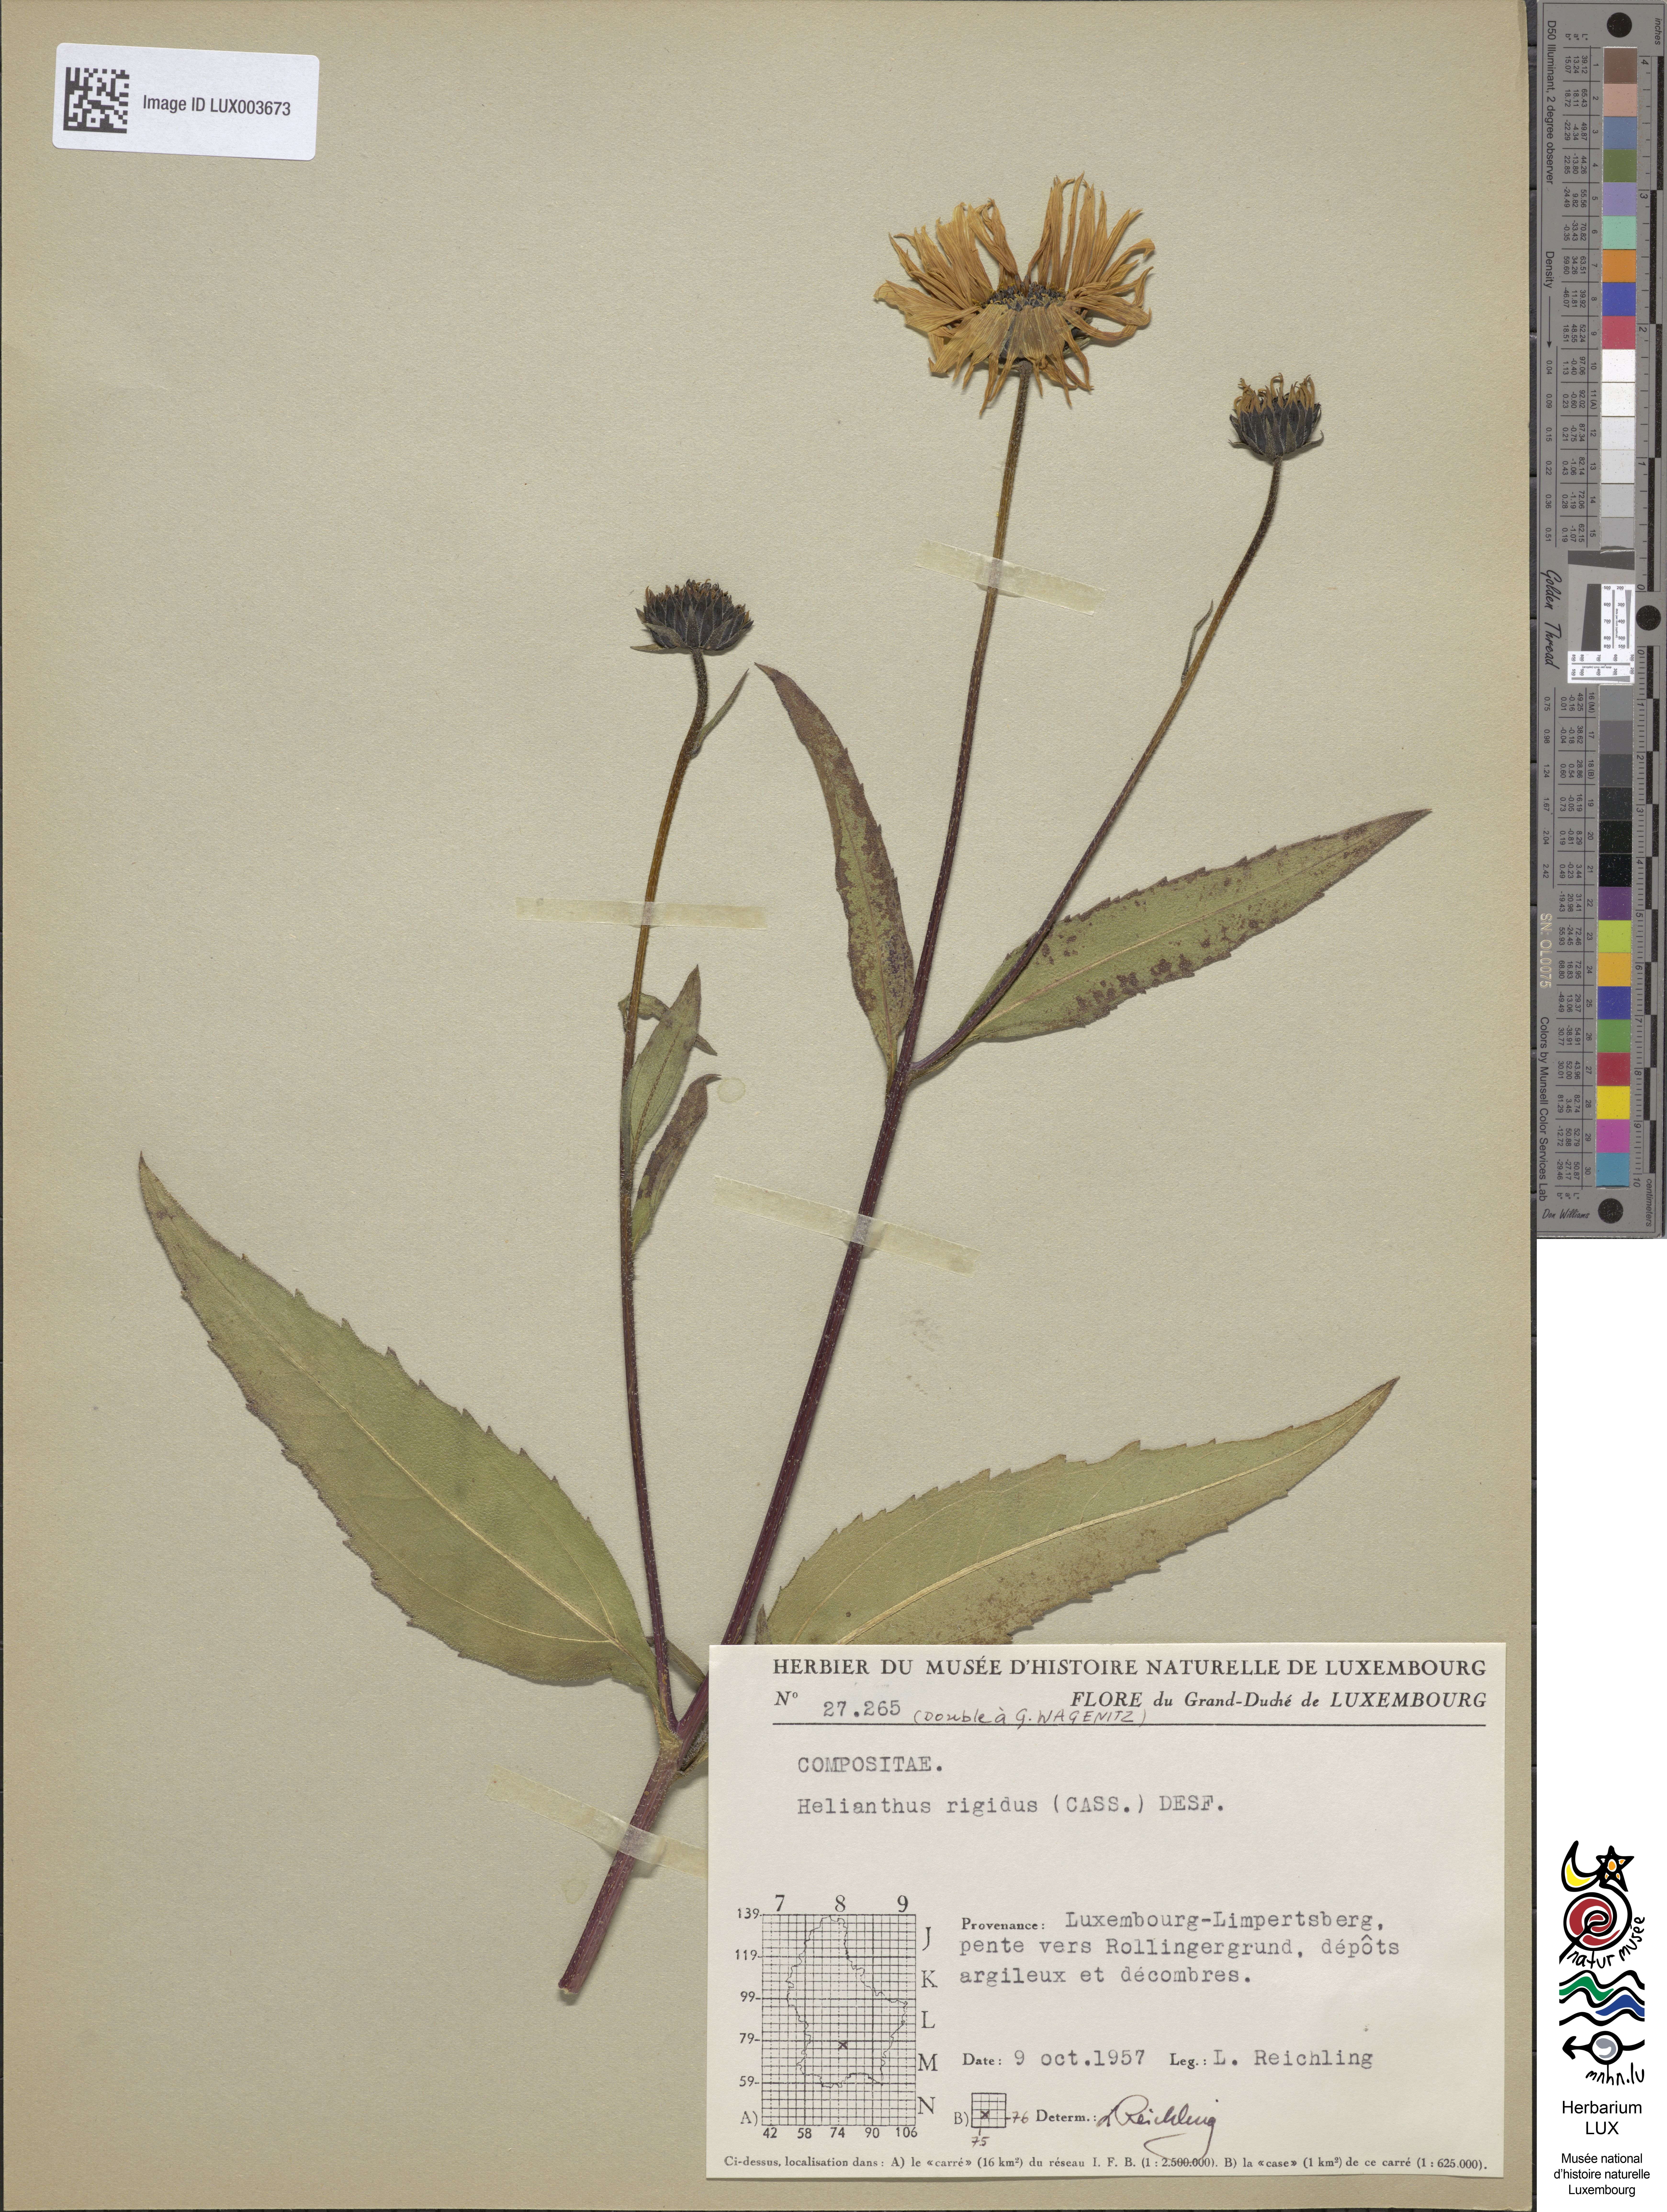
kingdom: Plantae
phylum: Tracheophyta
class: Magnoliopsida
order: Asterales
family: Asteraceae
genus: Helianthus
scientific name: Helianthus pauciflorus
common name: Stiff sunflower
